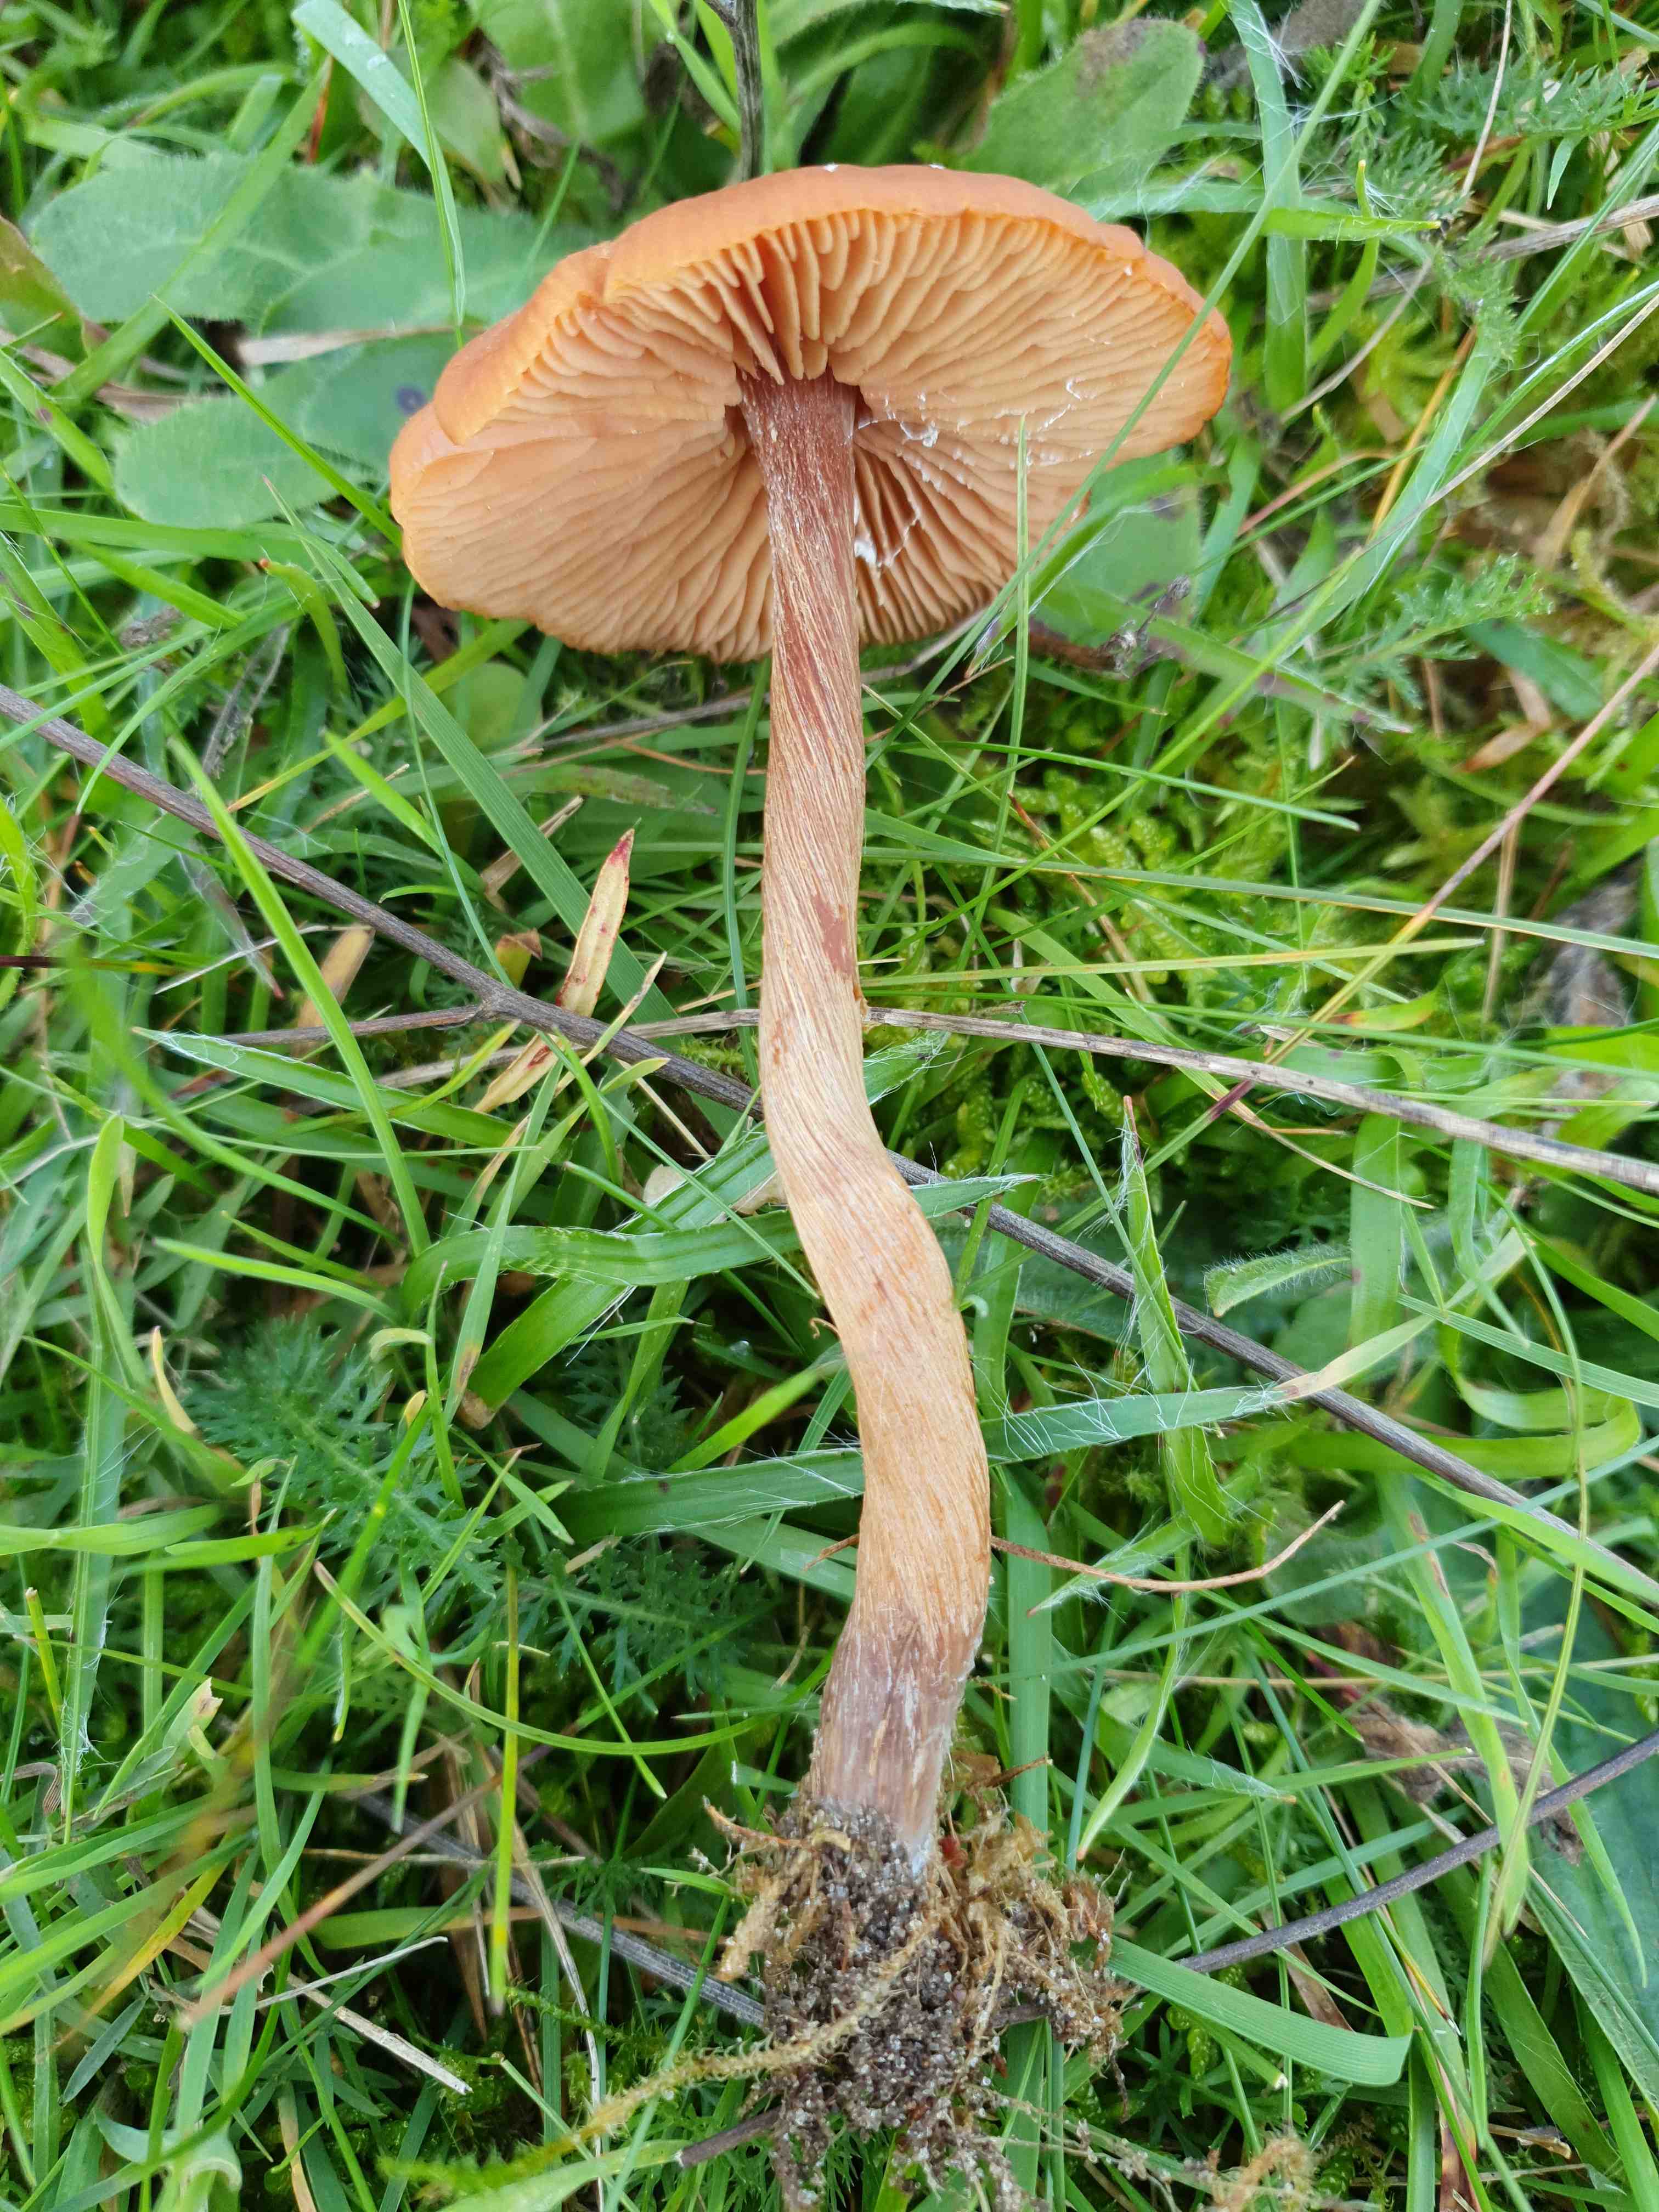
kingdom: Fungi
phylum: Basidiomycota
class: Agaricomycetes
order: Agaricales
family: Hydnangiaceae
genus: Laccaria
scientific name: Laccaria proxima
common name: stor ametysthat
